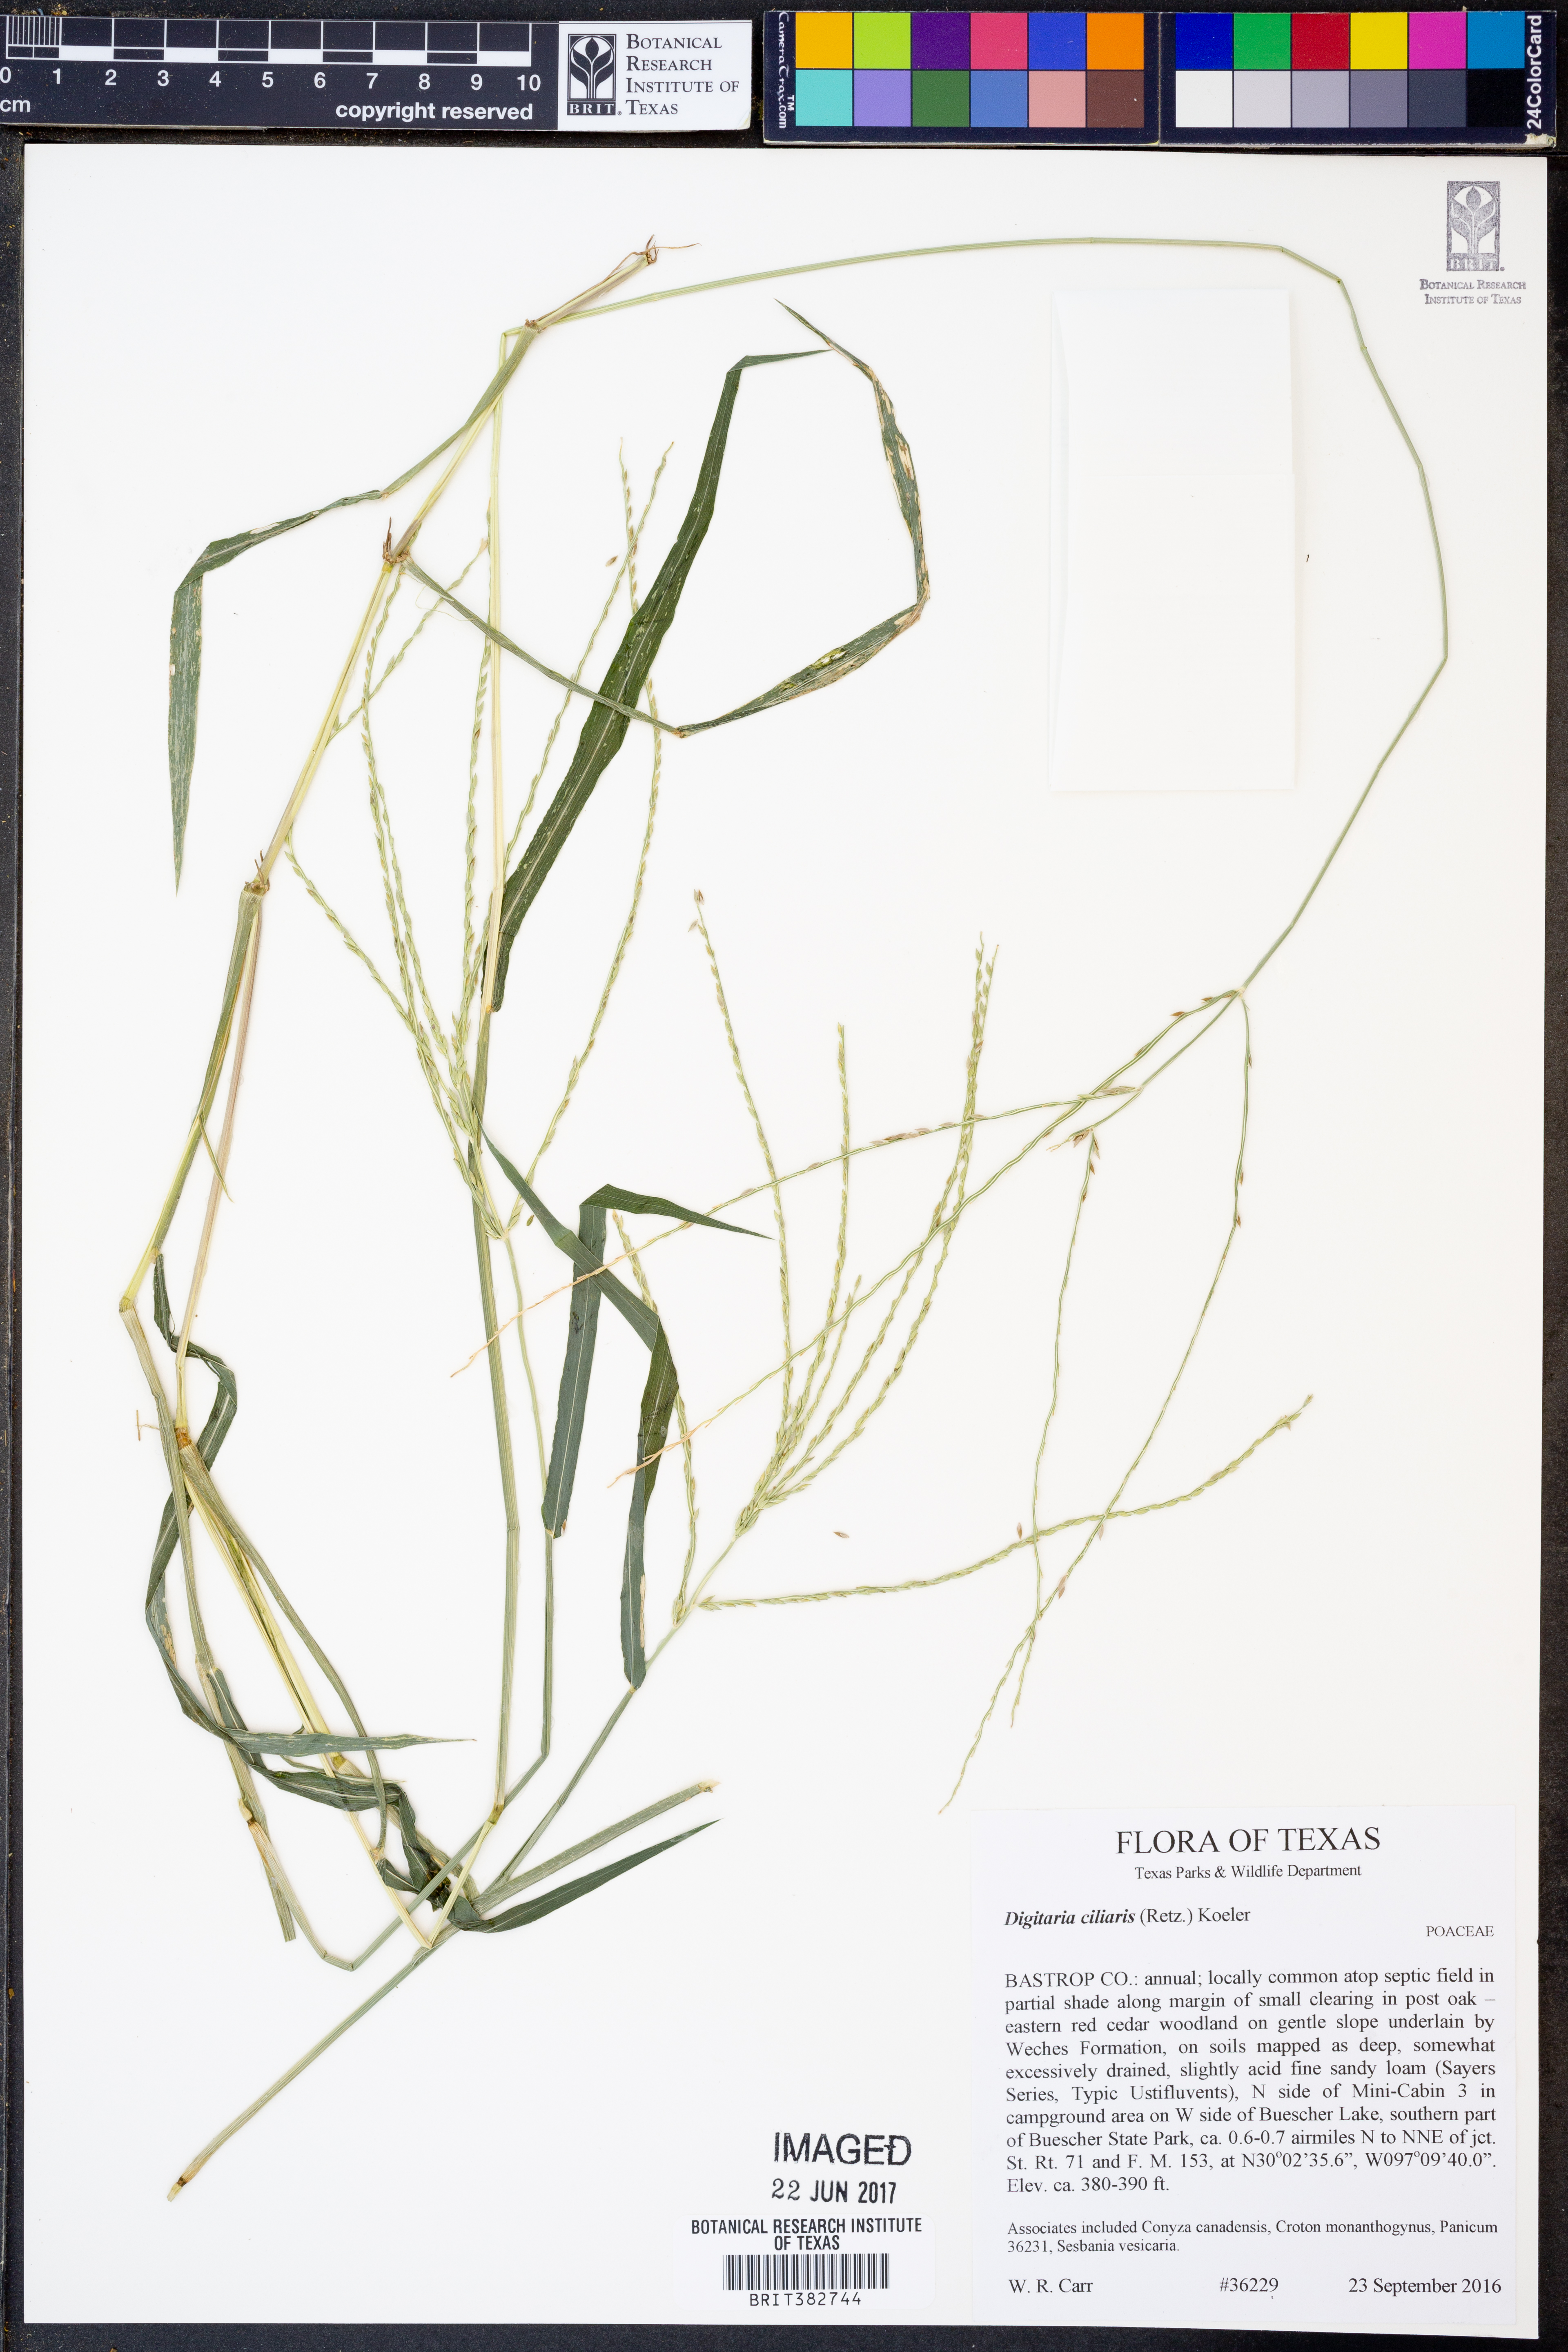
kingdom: Plantae
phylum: Tracheophyta
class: Liliopsida
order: Poales
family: Poaceae
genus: Digitaria
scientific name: Digitaria ciliaris
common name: Tropical finger-grass
